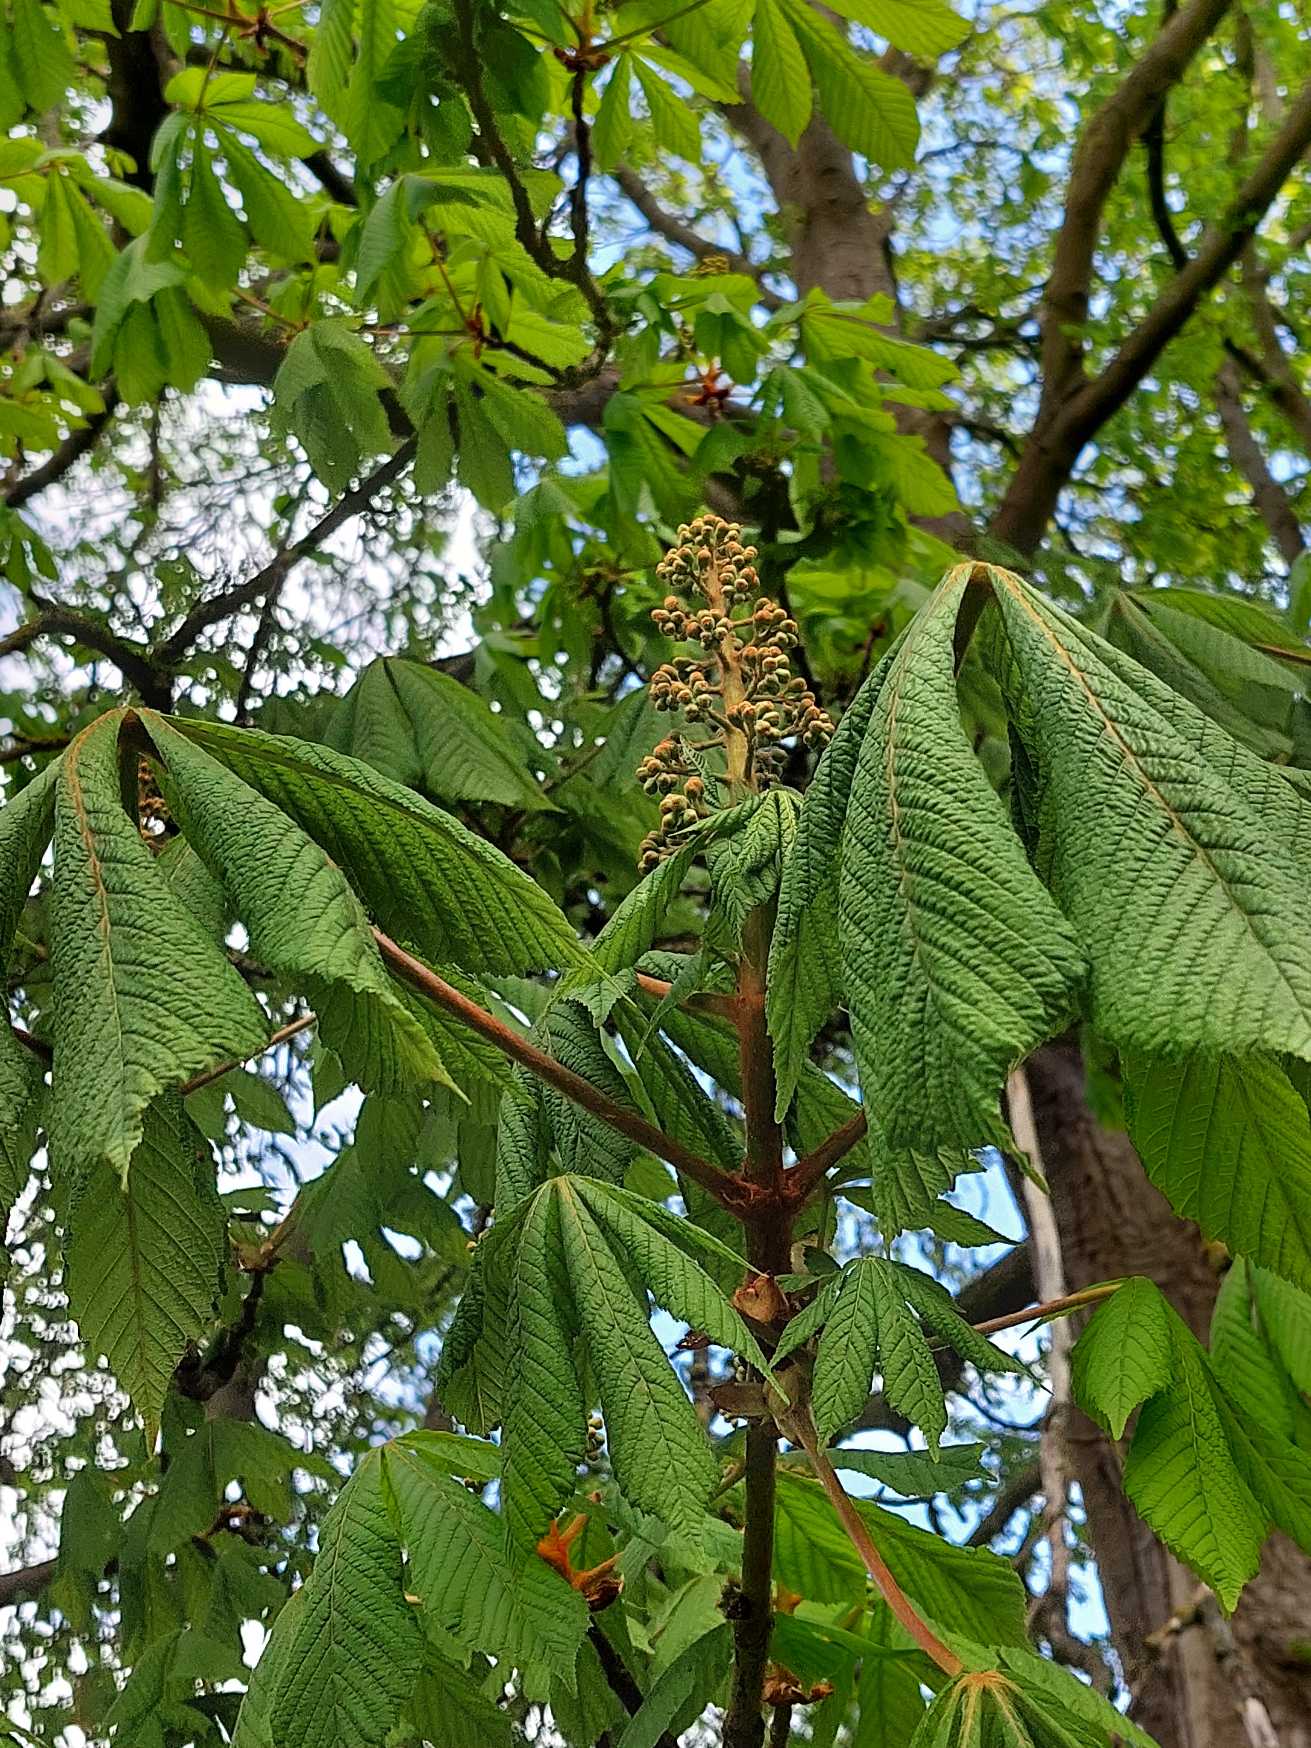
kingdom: Plantae
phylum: Tracheophyta
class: Magnoliopsida
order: Sapindales
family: Sapindaceae
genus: Aesculus
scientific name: Aesculus hippocastanum
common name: Hestekastanie
